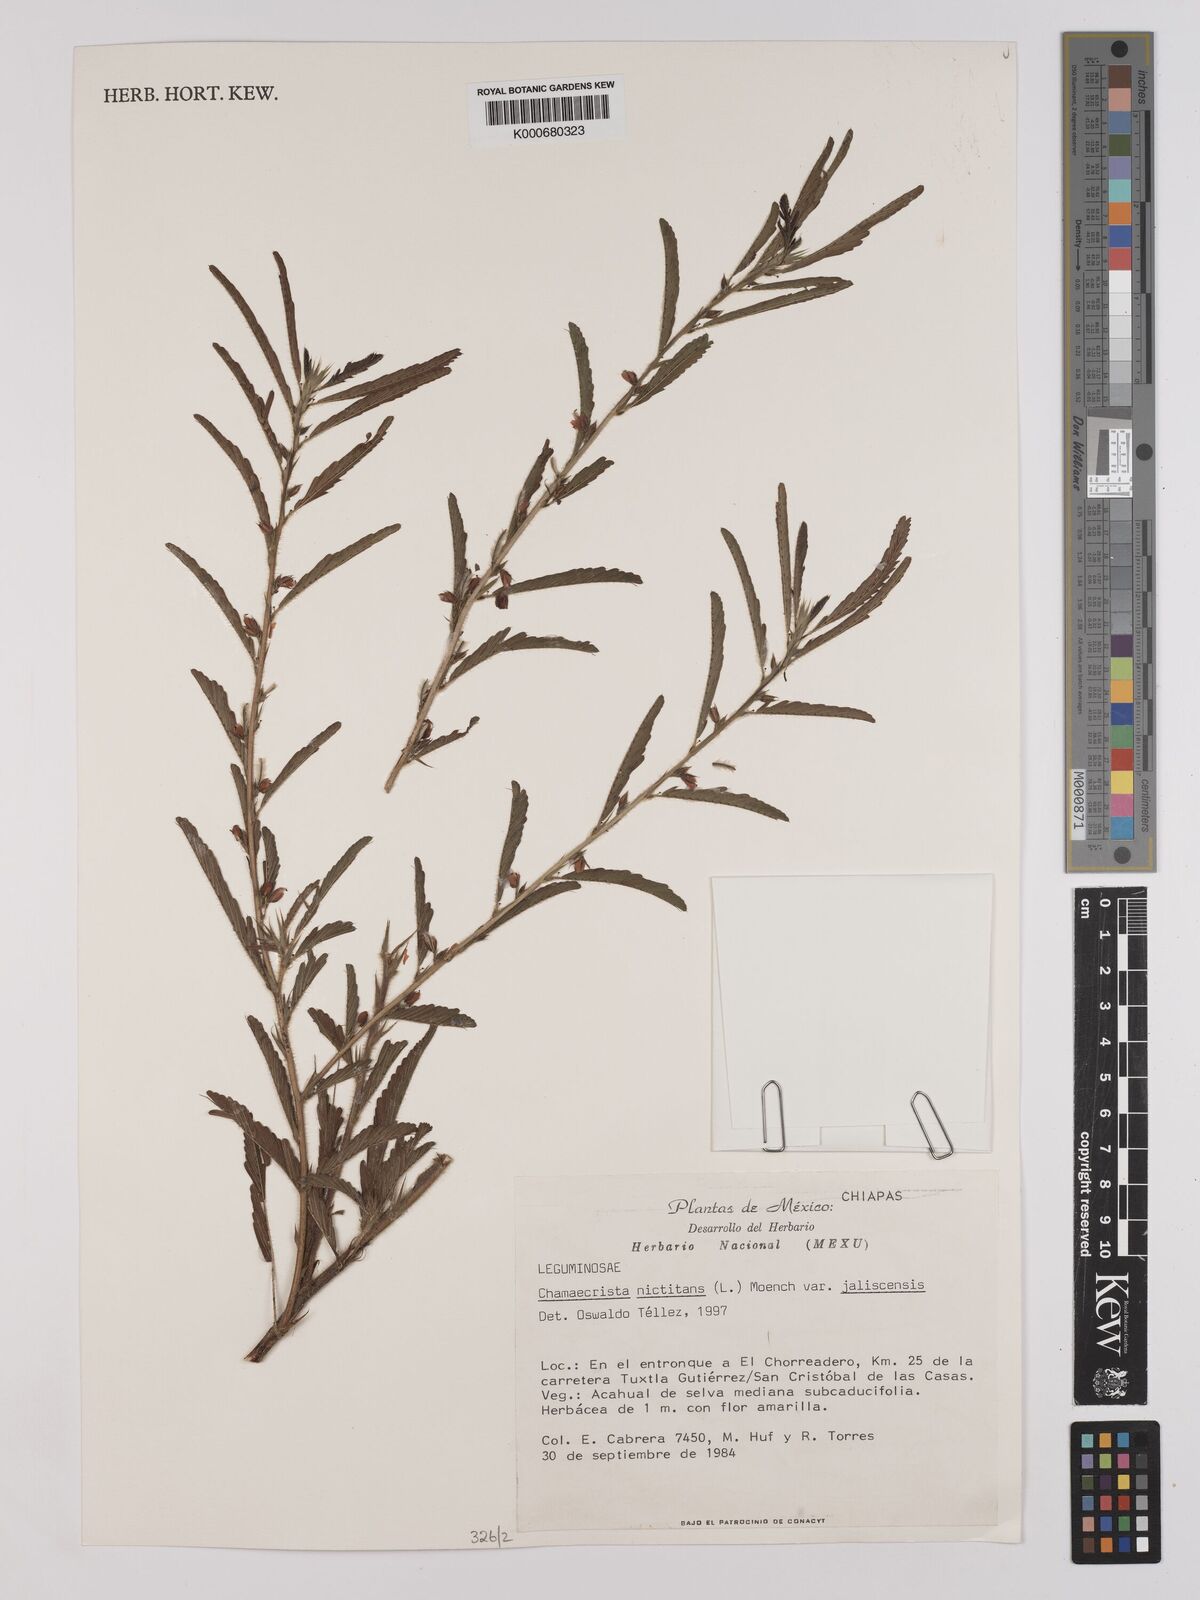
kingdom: Plantae
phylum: Tracheophyta
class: Magnoliopsida
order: Fabales
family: Fabaceae
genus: Chamaecrista
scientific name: Chamaecrista nictitans
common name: Sensitive cassia
